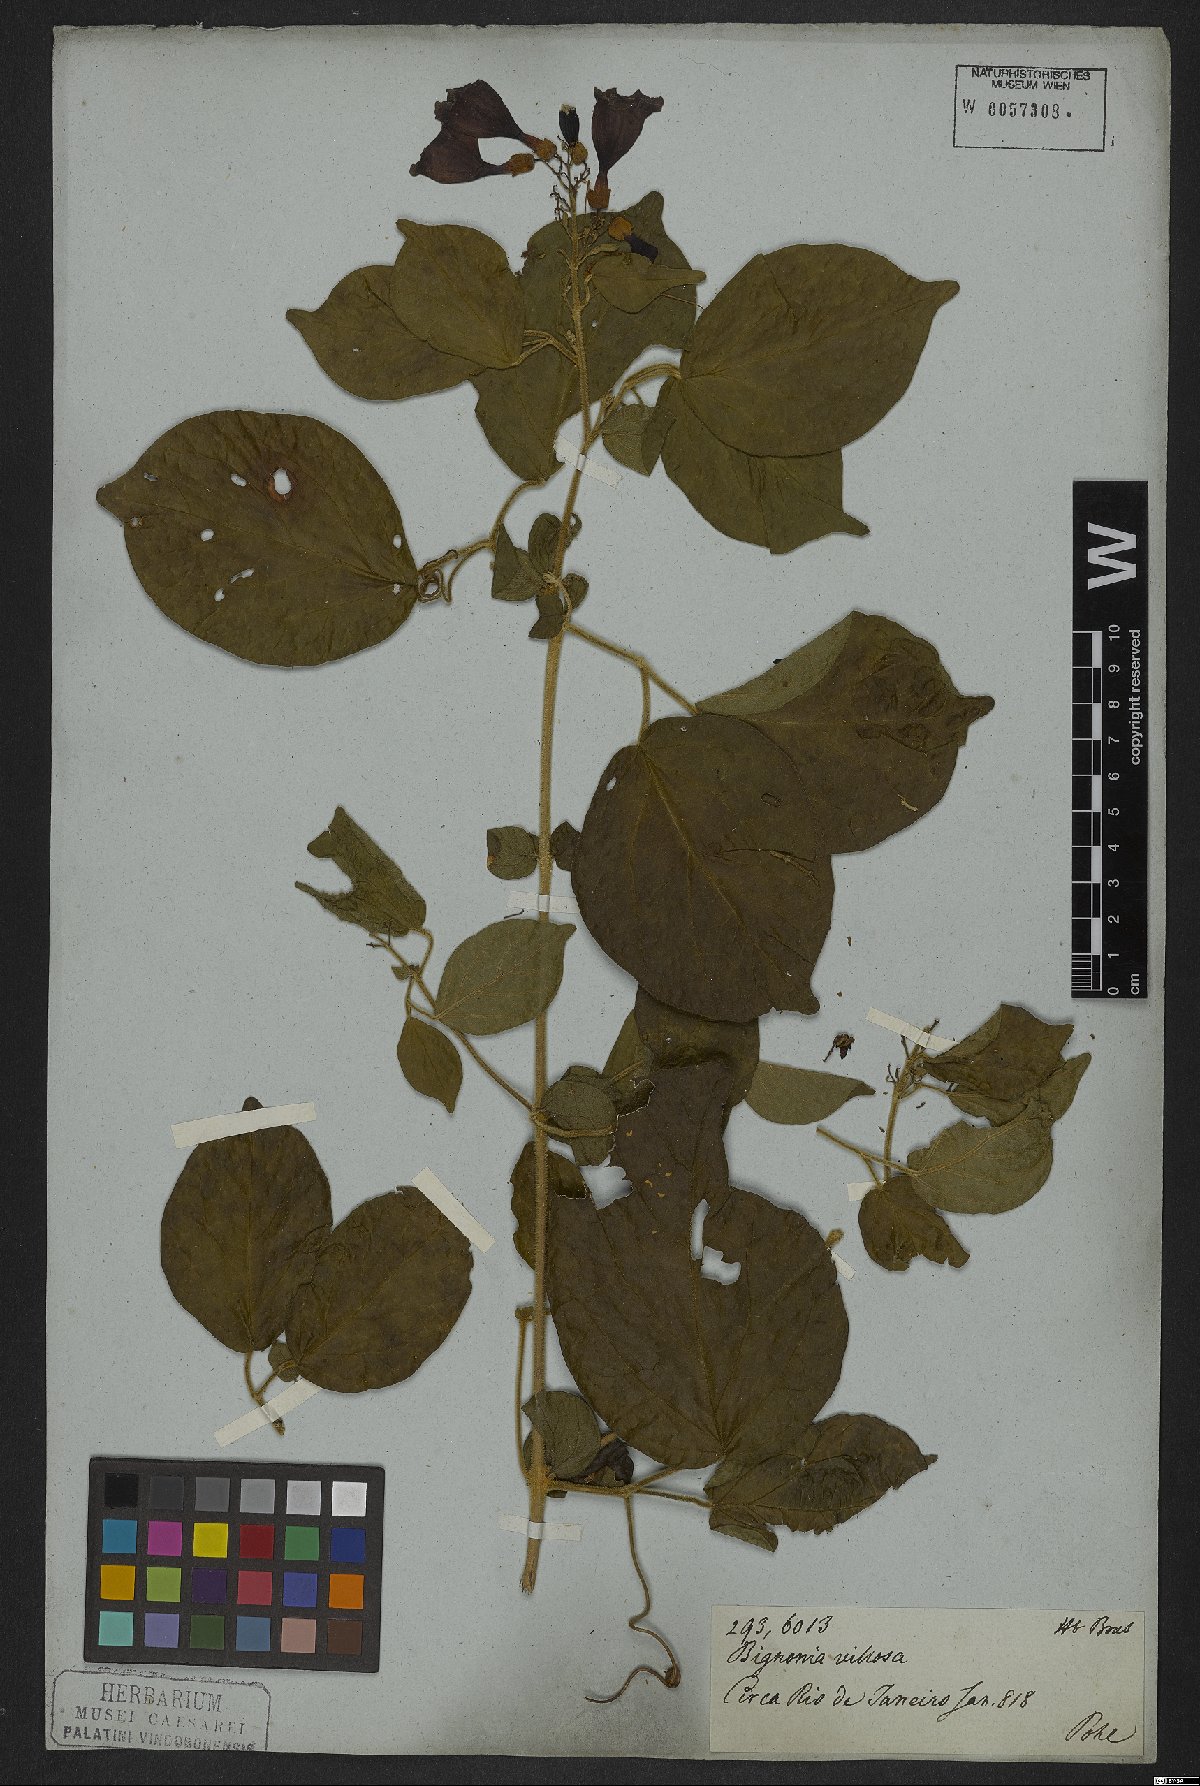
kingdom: Plantae
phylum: Tracheophyta
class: Magnoliopsida
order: Lamiales
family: Bignoniaceae
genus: Bignonia
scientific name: Bignonia aequinoctialis
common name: Garlicvine
